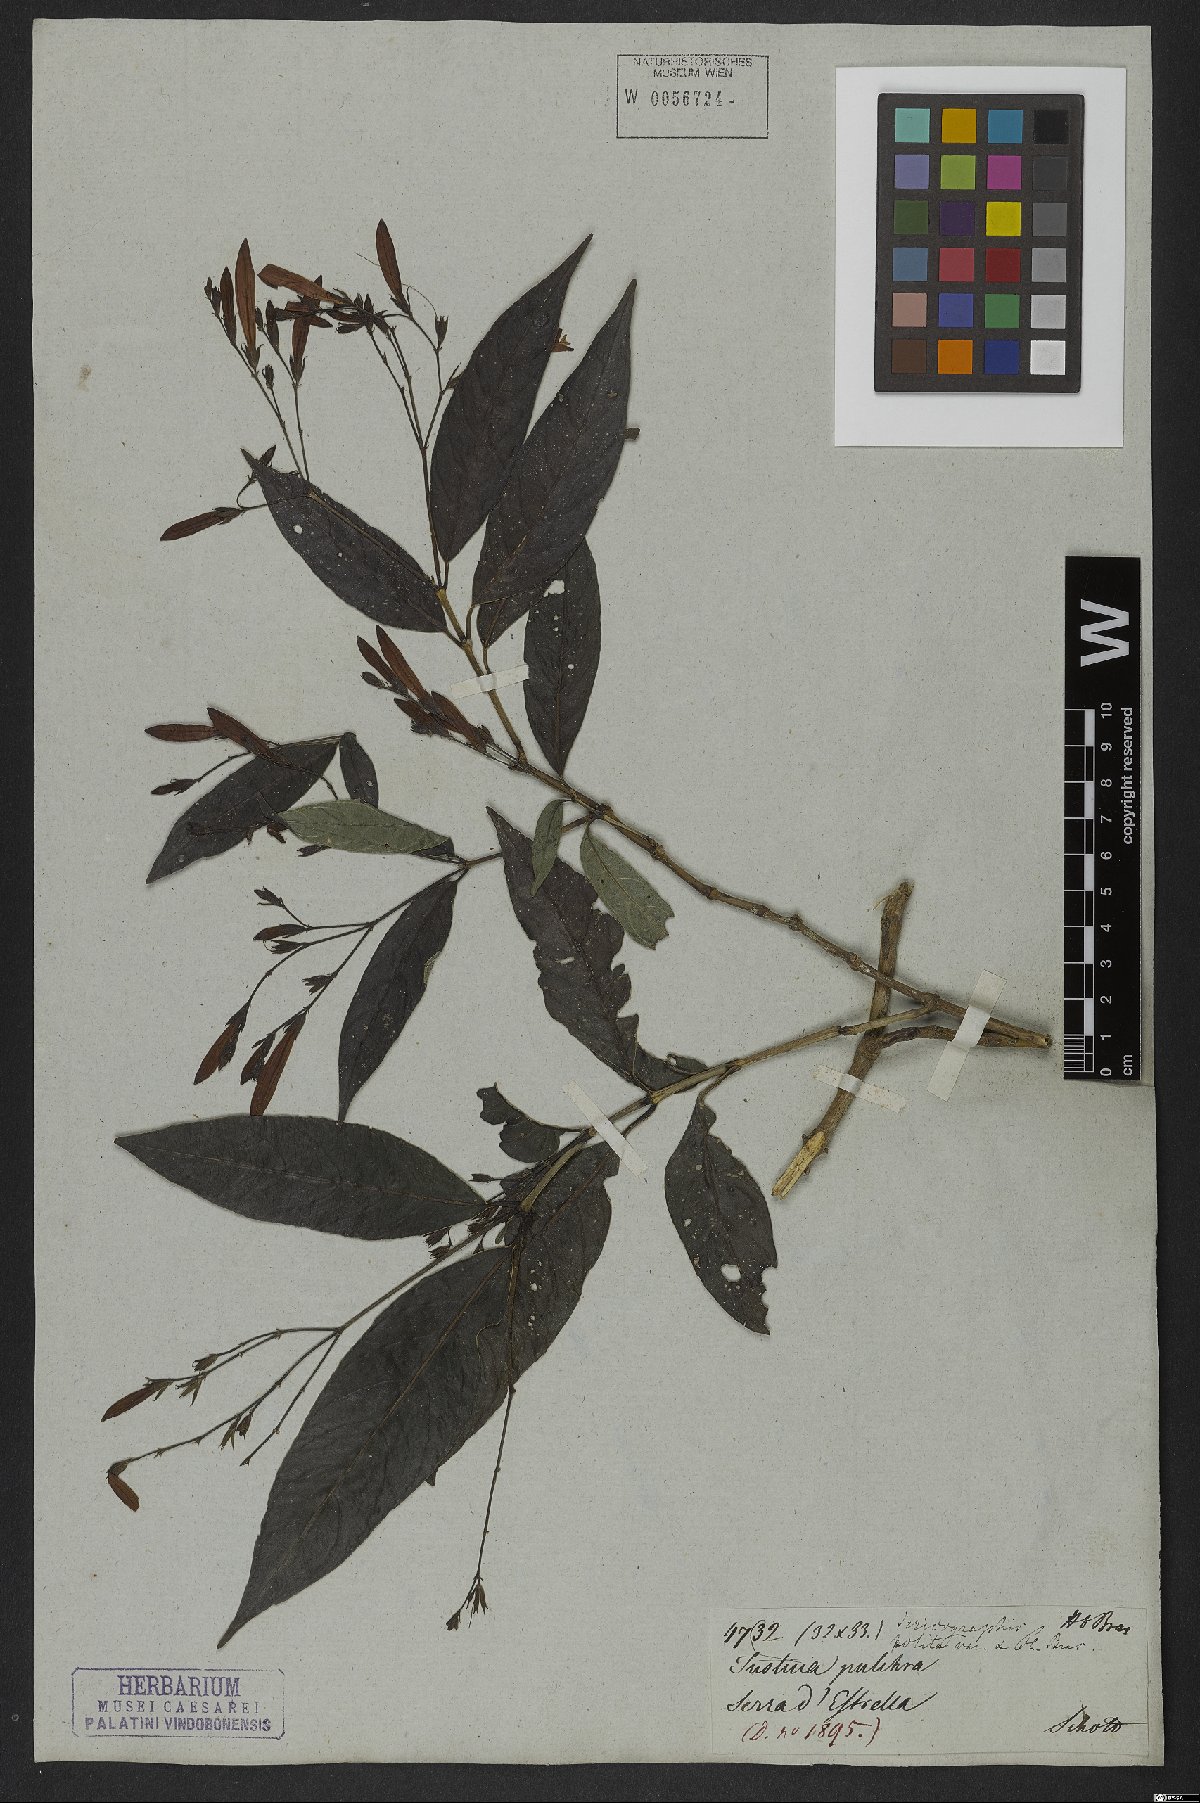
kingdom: Plantae
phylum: Tracheophyta
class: Magnoliopsida
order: Lamiales
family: Acanthaceae
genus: Justicia
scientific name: Justicia polita
